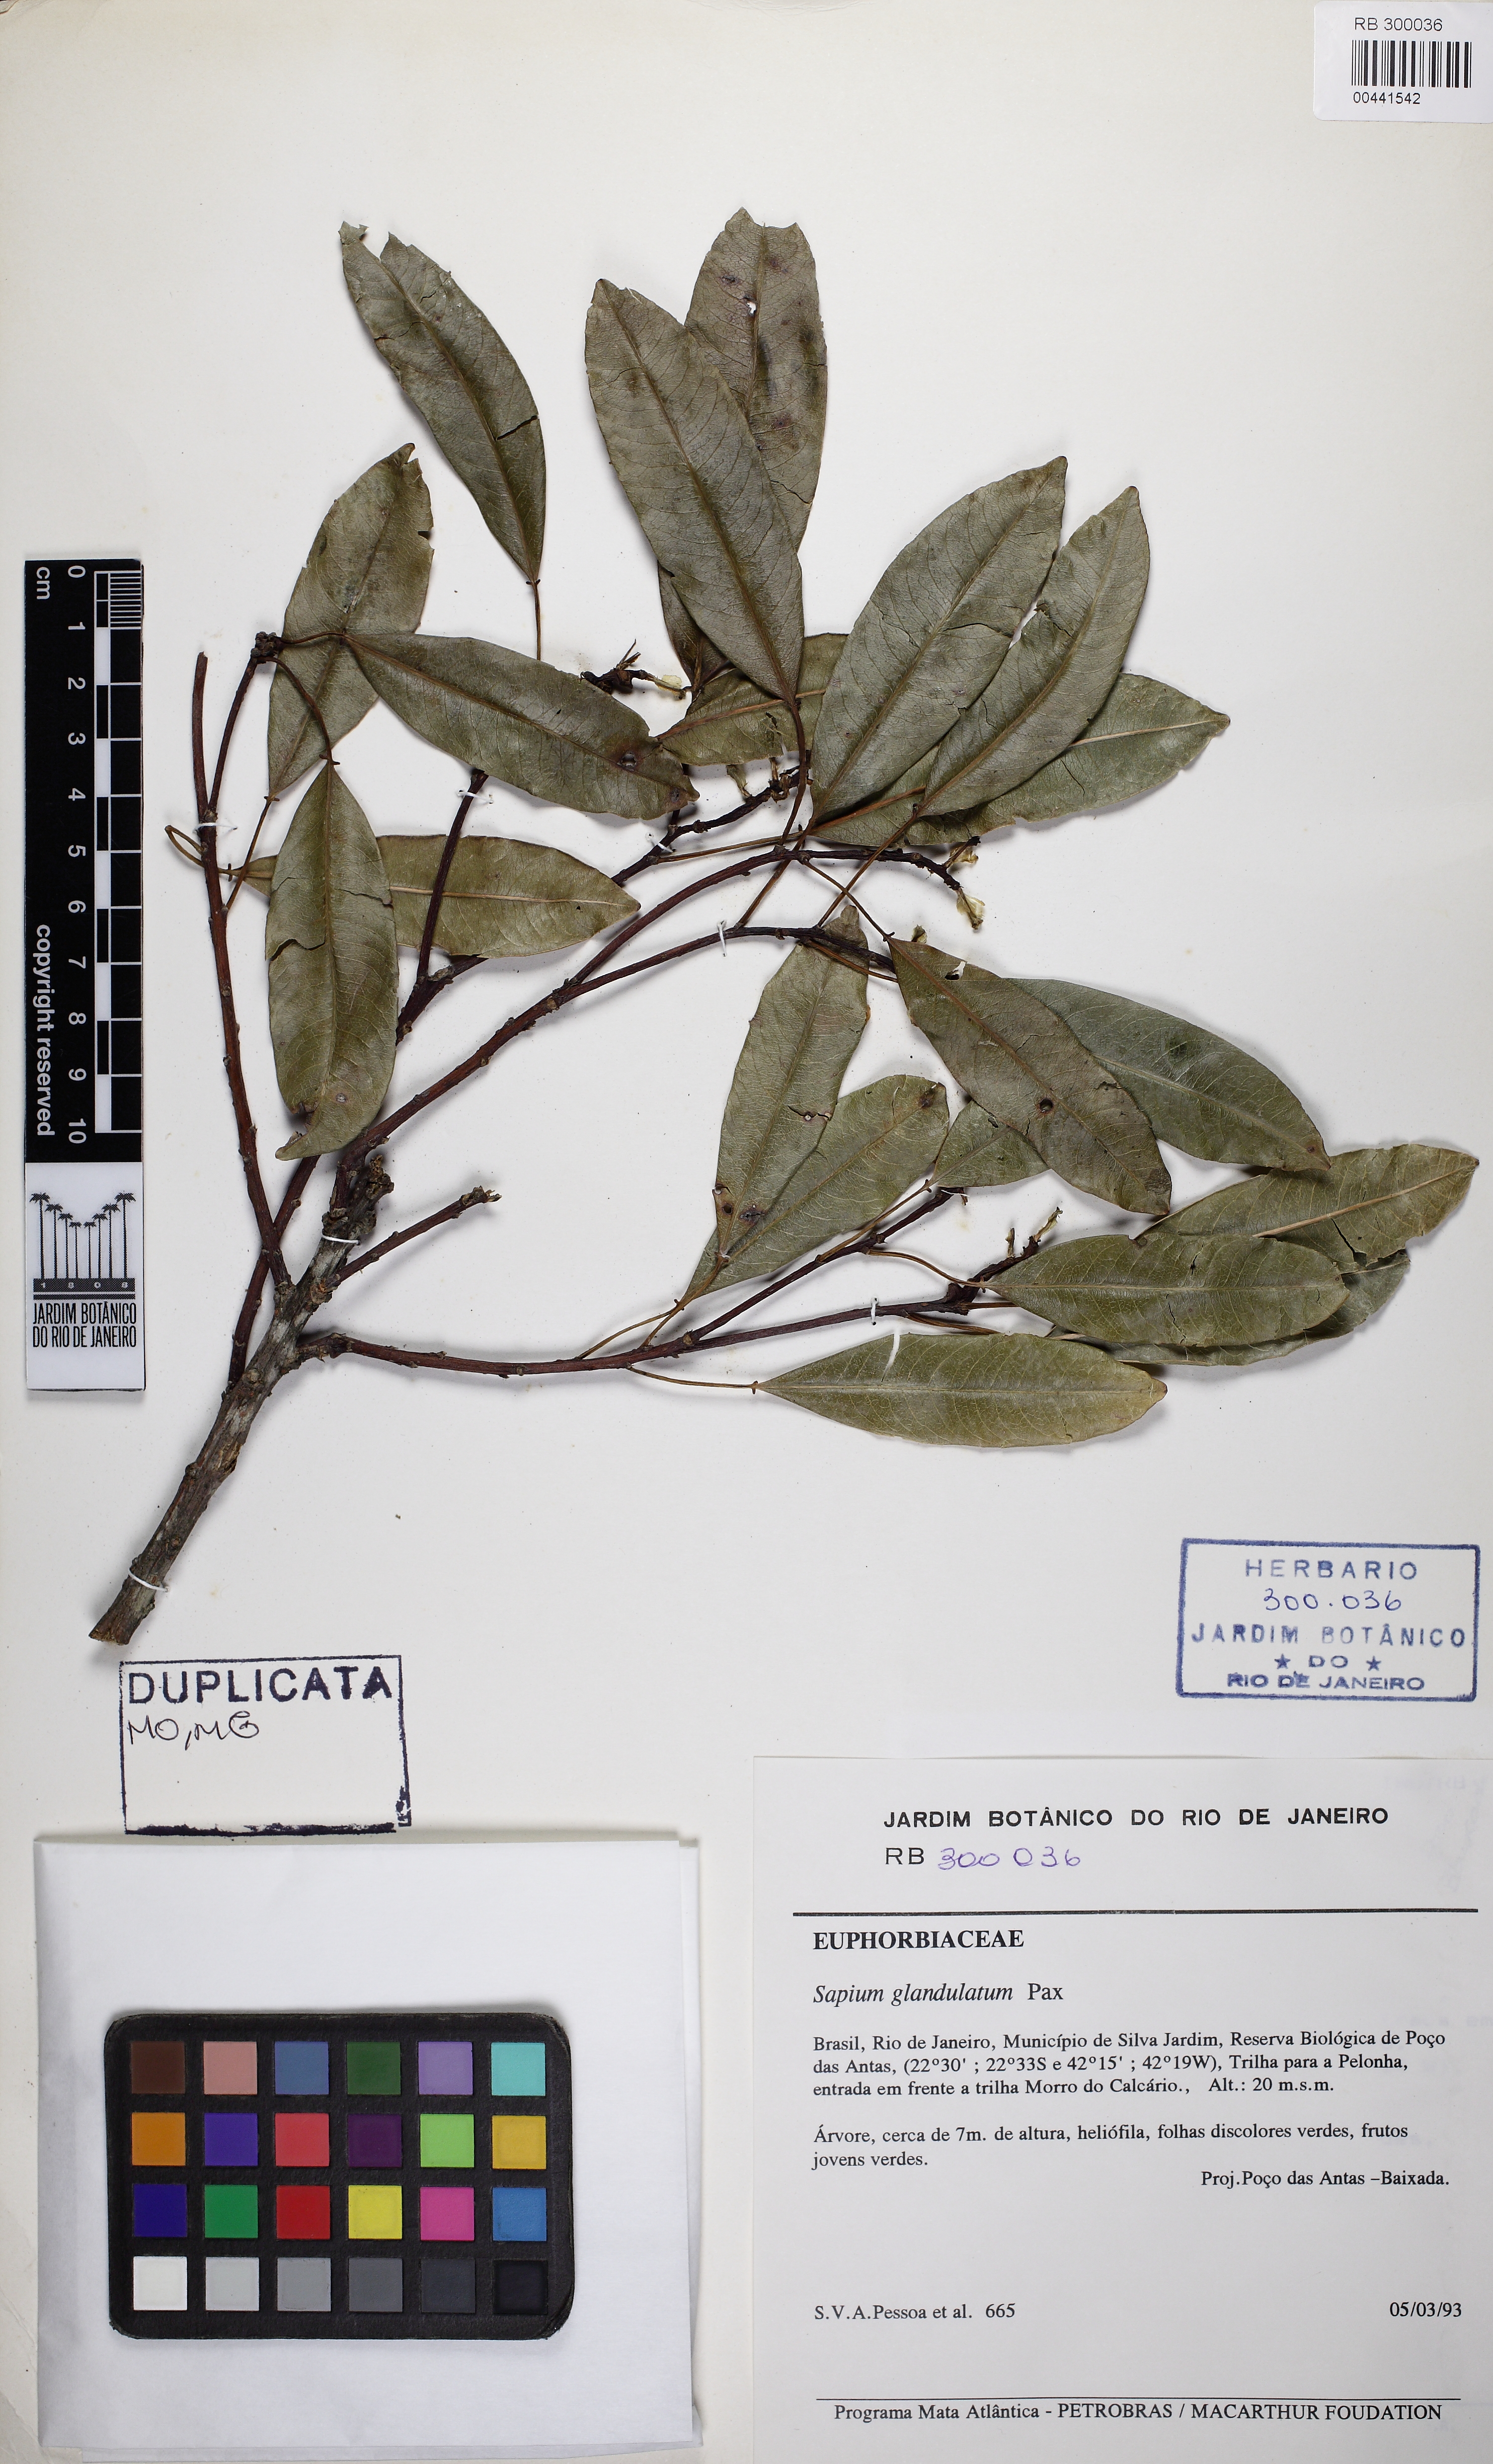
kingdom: Plantae
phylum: Tracheophyta
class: Magnoliopsida
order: Malpighiales
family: Euphorbiaceae
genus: Sapium
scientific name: Sapium glandulosum
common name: Milktree
